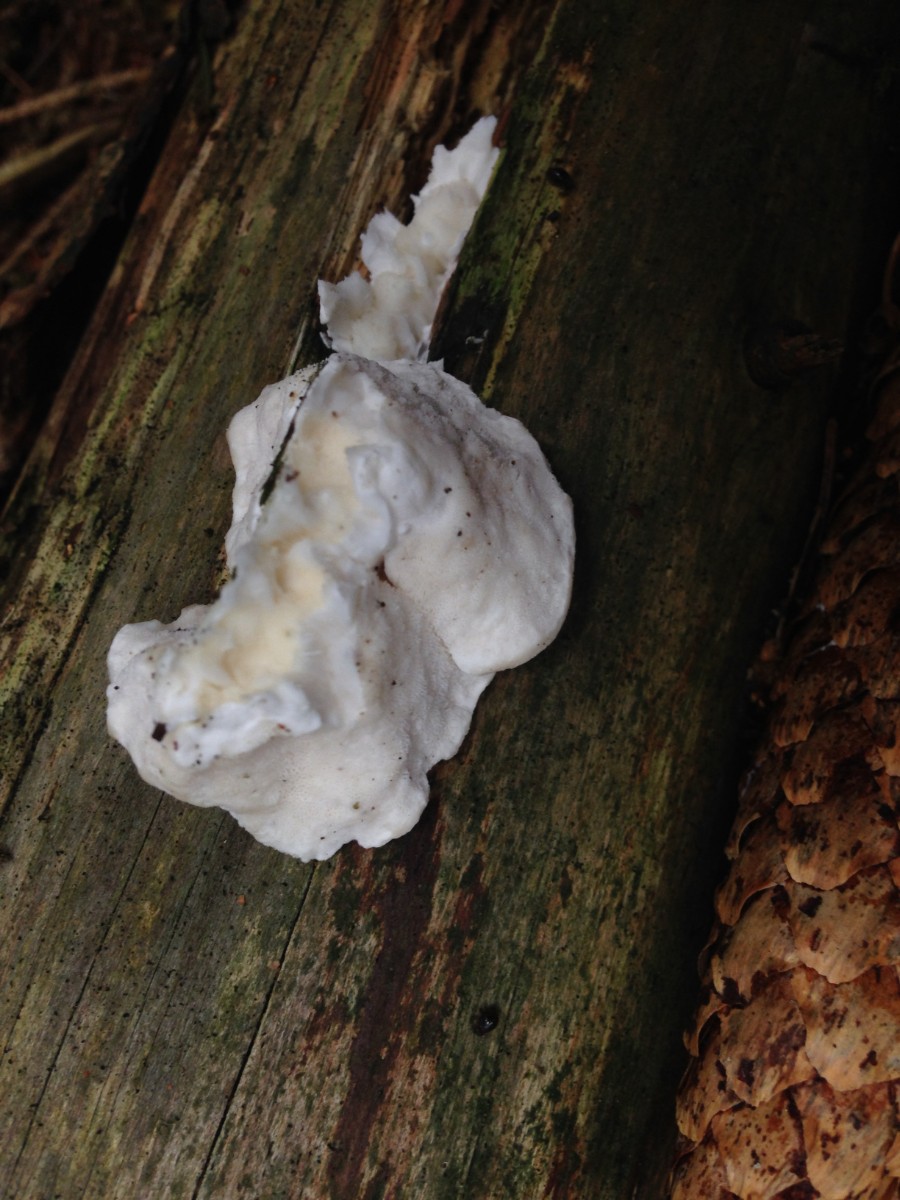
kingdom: Fungi
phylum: Basidiomycota
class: Agaricomycetes
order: Polyporales
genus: Amaropostia
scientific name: Amaropostia stiptica
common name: bitter kødporesvamp
